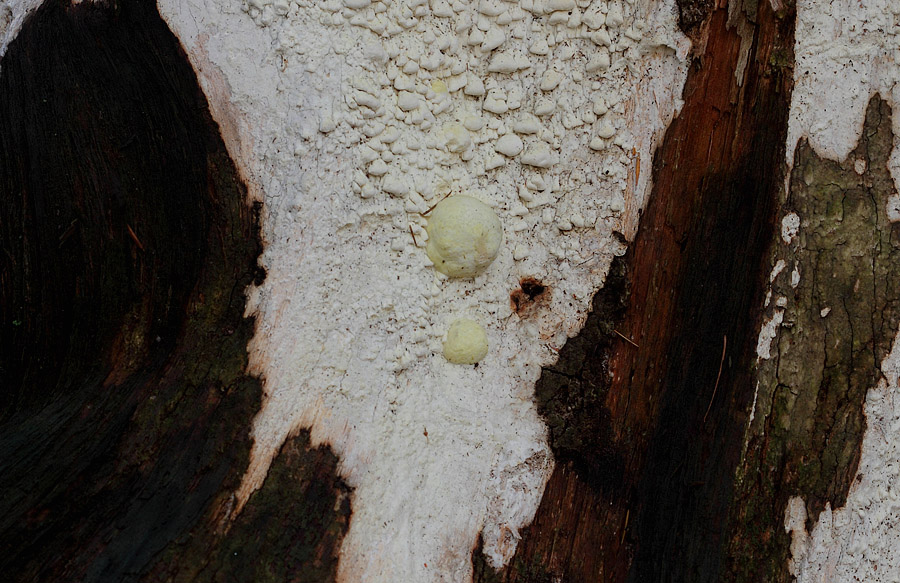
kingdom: Fungi
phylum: Basidiomycota
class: Agaricomycetes
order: Polyporales
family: Fomitopsidaceae
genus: Daedalea
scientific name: Daedalea xantha
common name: gul sejporesvamp
